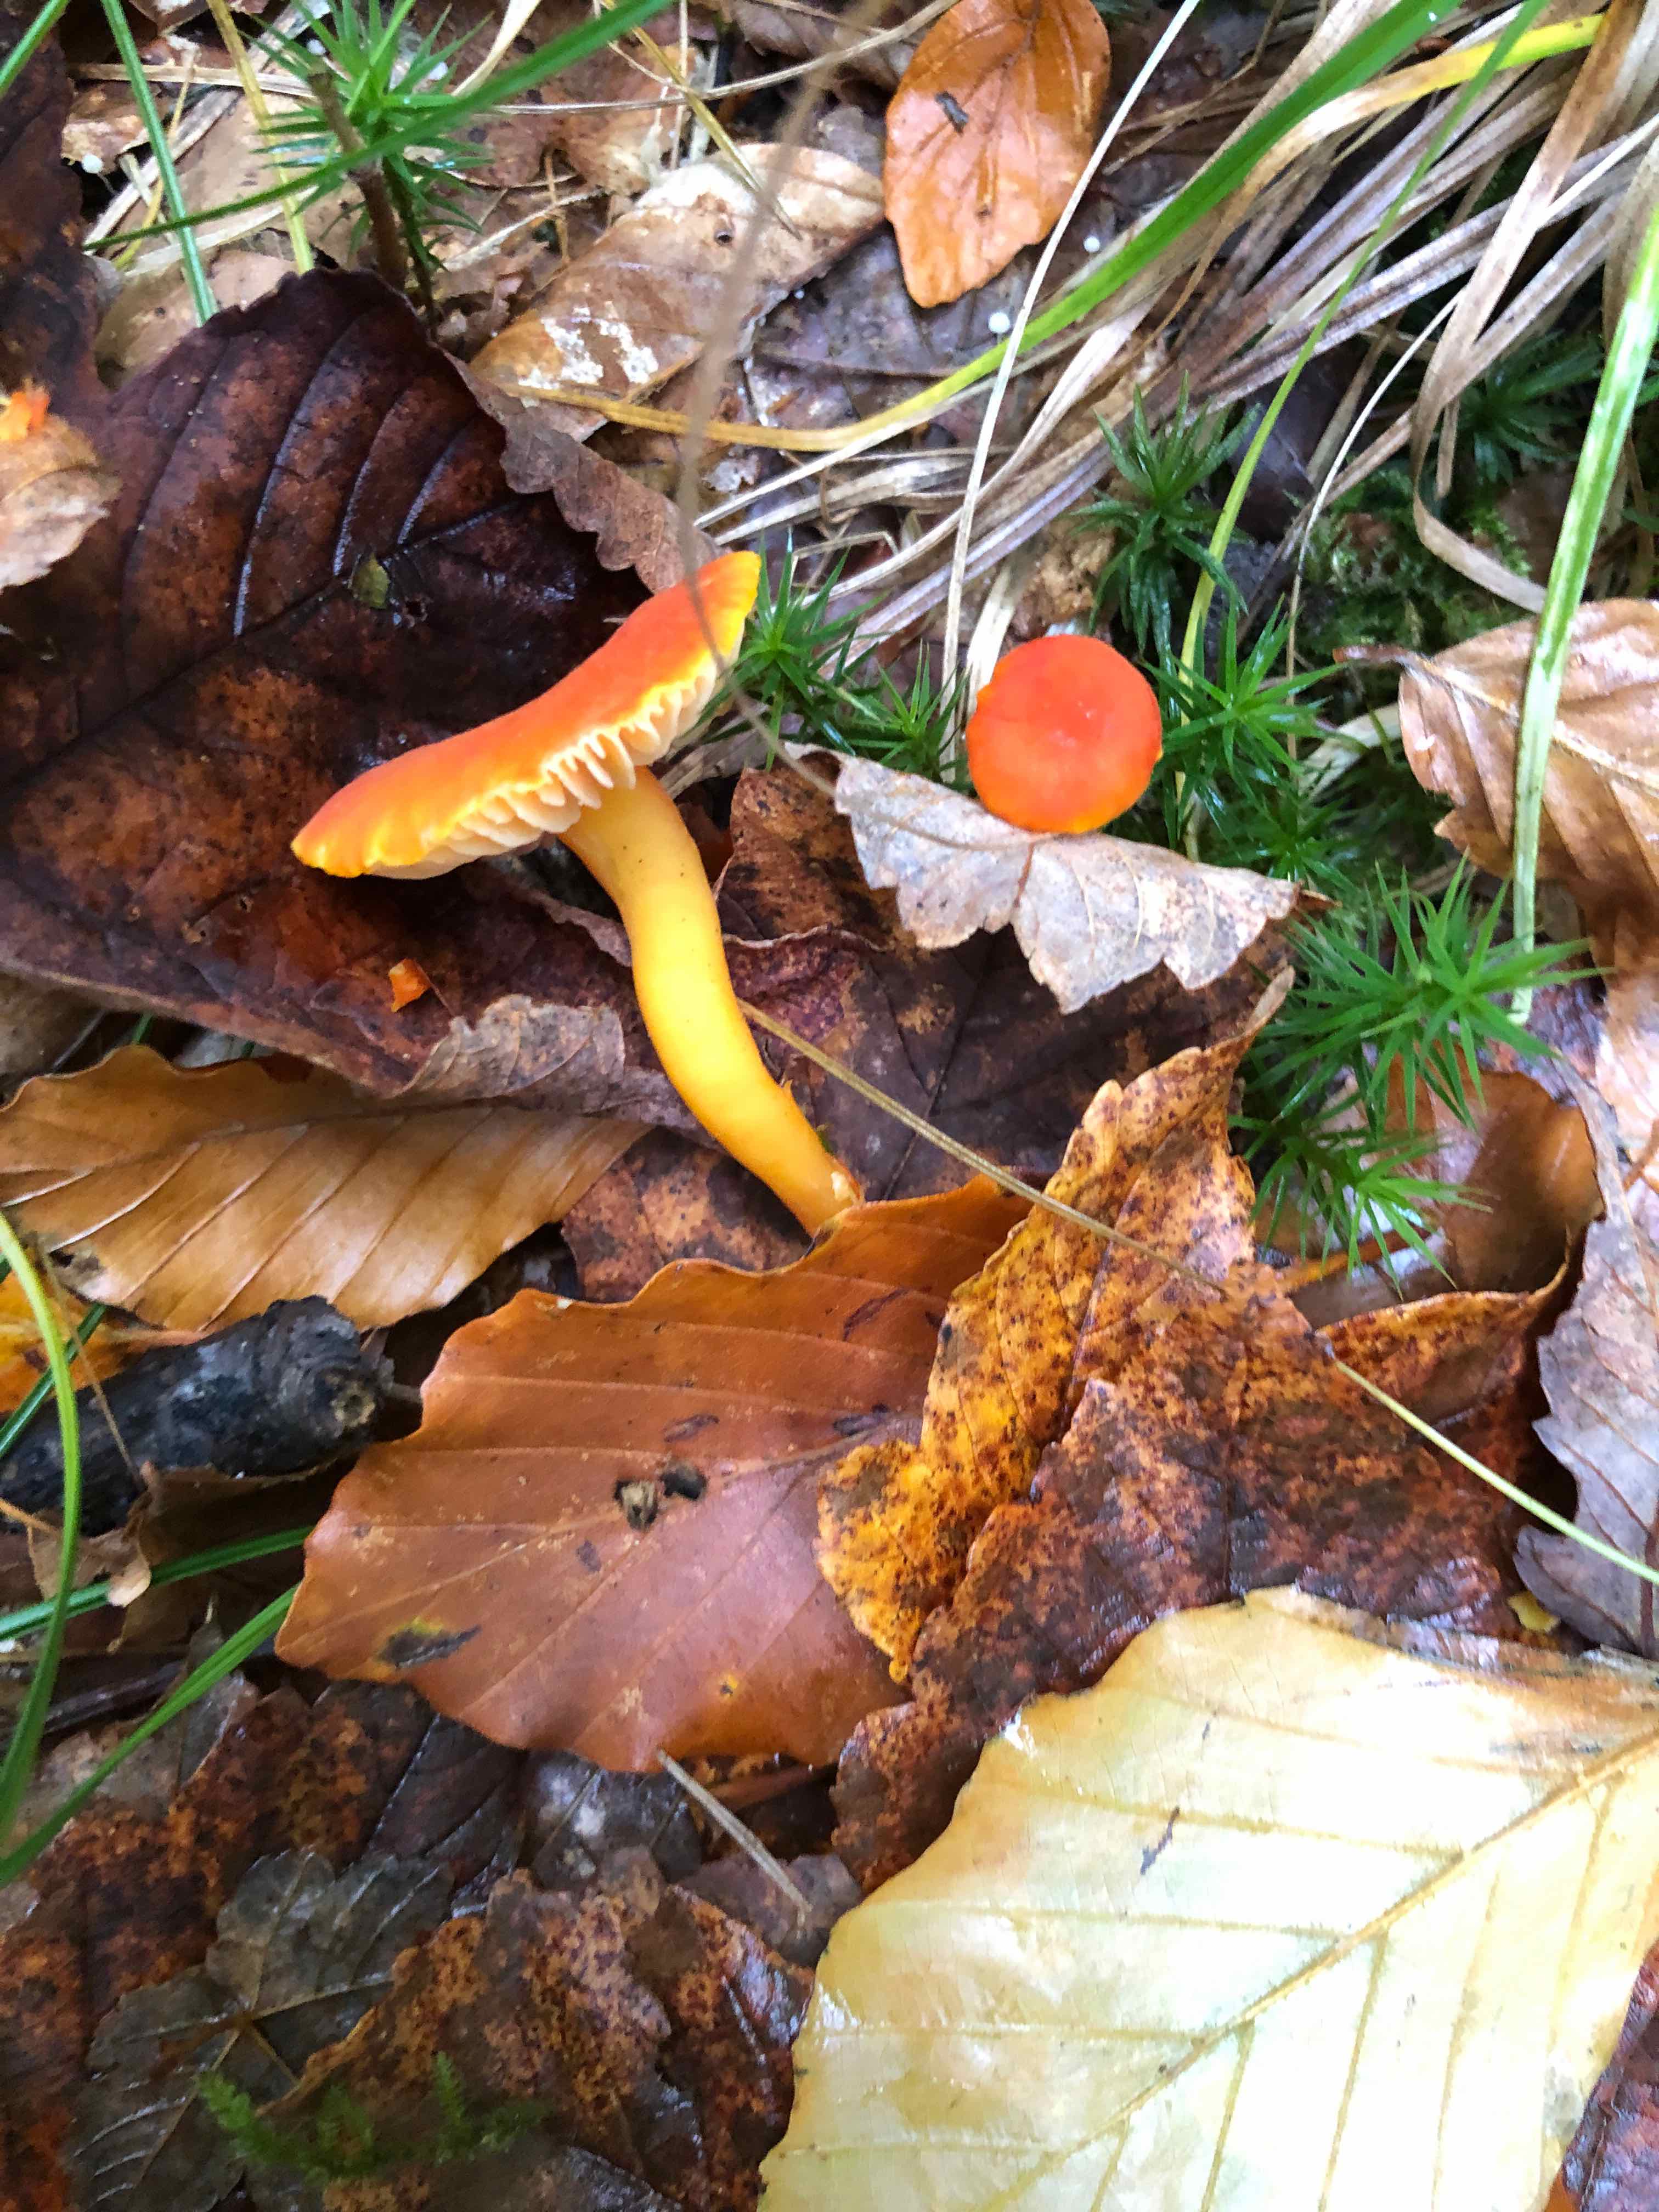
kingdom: Fungi
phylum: Basidiomycota
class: Agaricomycetes
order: Agaricales
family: Hygrophoraceae
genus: Hygrocybe
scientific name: Hygrocybe miniata
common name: mønje-vokshat
